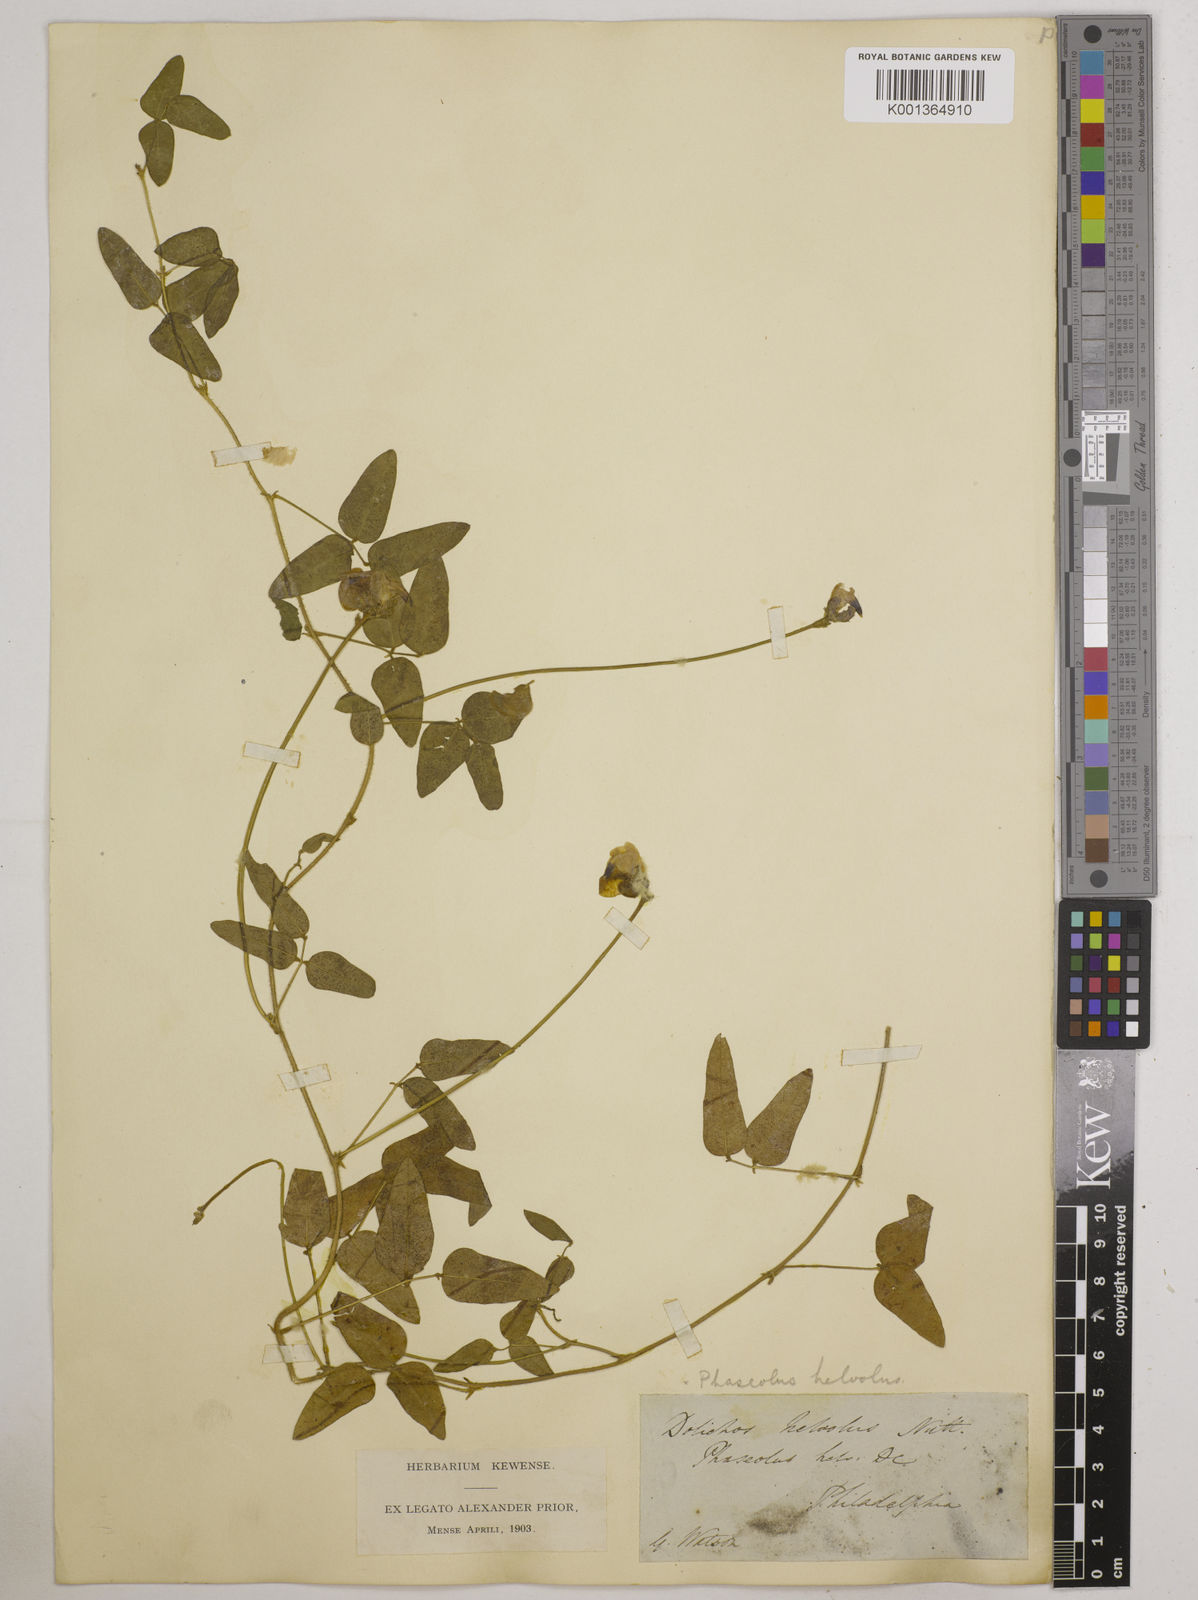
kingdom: Plantae
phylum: Tracheophyta
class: Magnoliopsida
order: Fabales
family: Fabaceae
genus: Strophostyles
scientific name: Strophostyles
